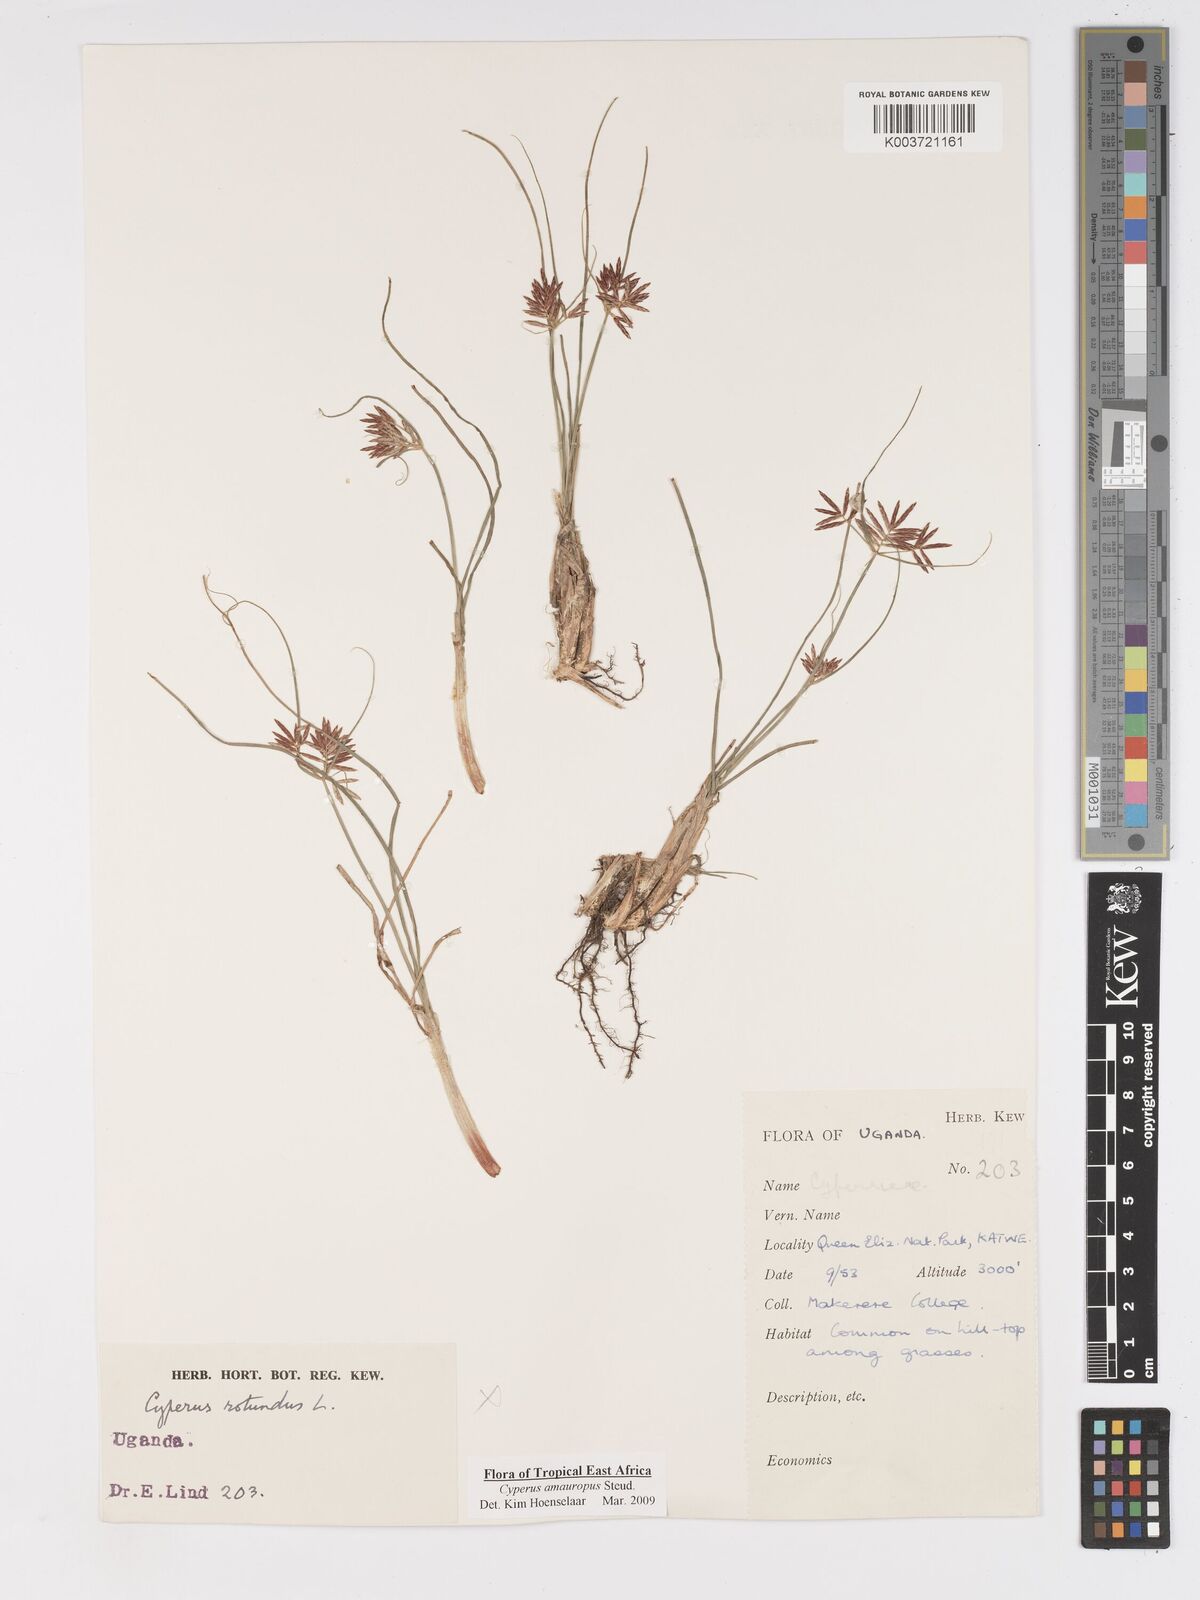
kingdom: Plantae
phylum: Tracheophyta
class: Liliopsida
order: Poales
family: Cyperaceae
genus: Cyperus
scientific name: Cyperus amauropus
